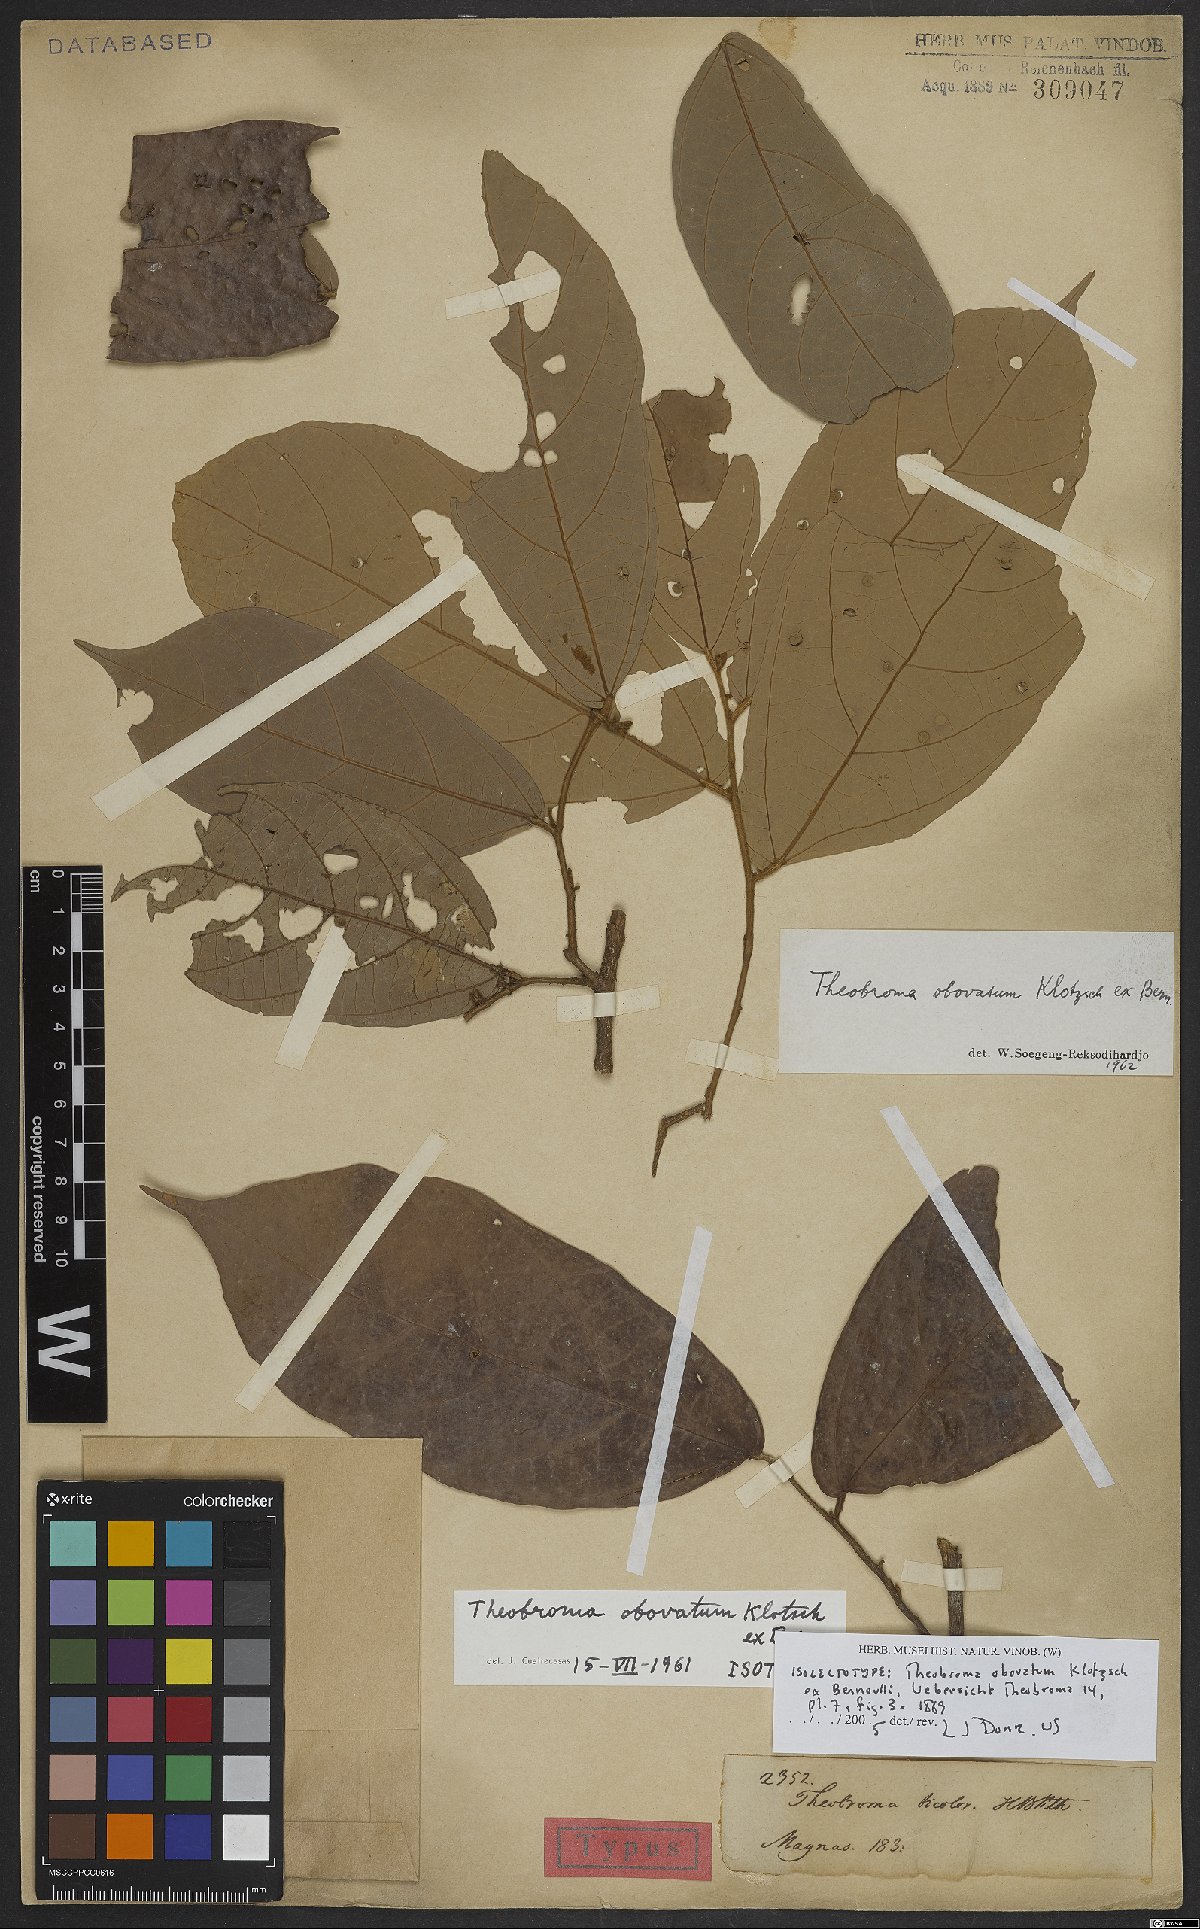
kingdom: Plantae
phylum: Tracheophyta
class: Magnoliopsida
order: Malvales
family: Malvaceae
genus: Theobroma
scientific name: Theobroma obovatum
